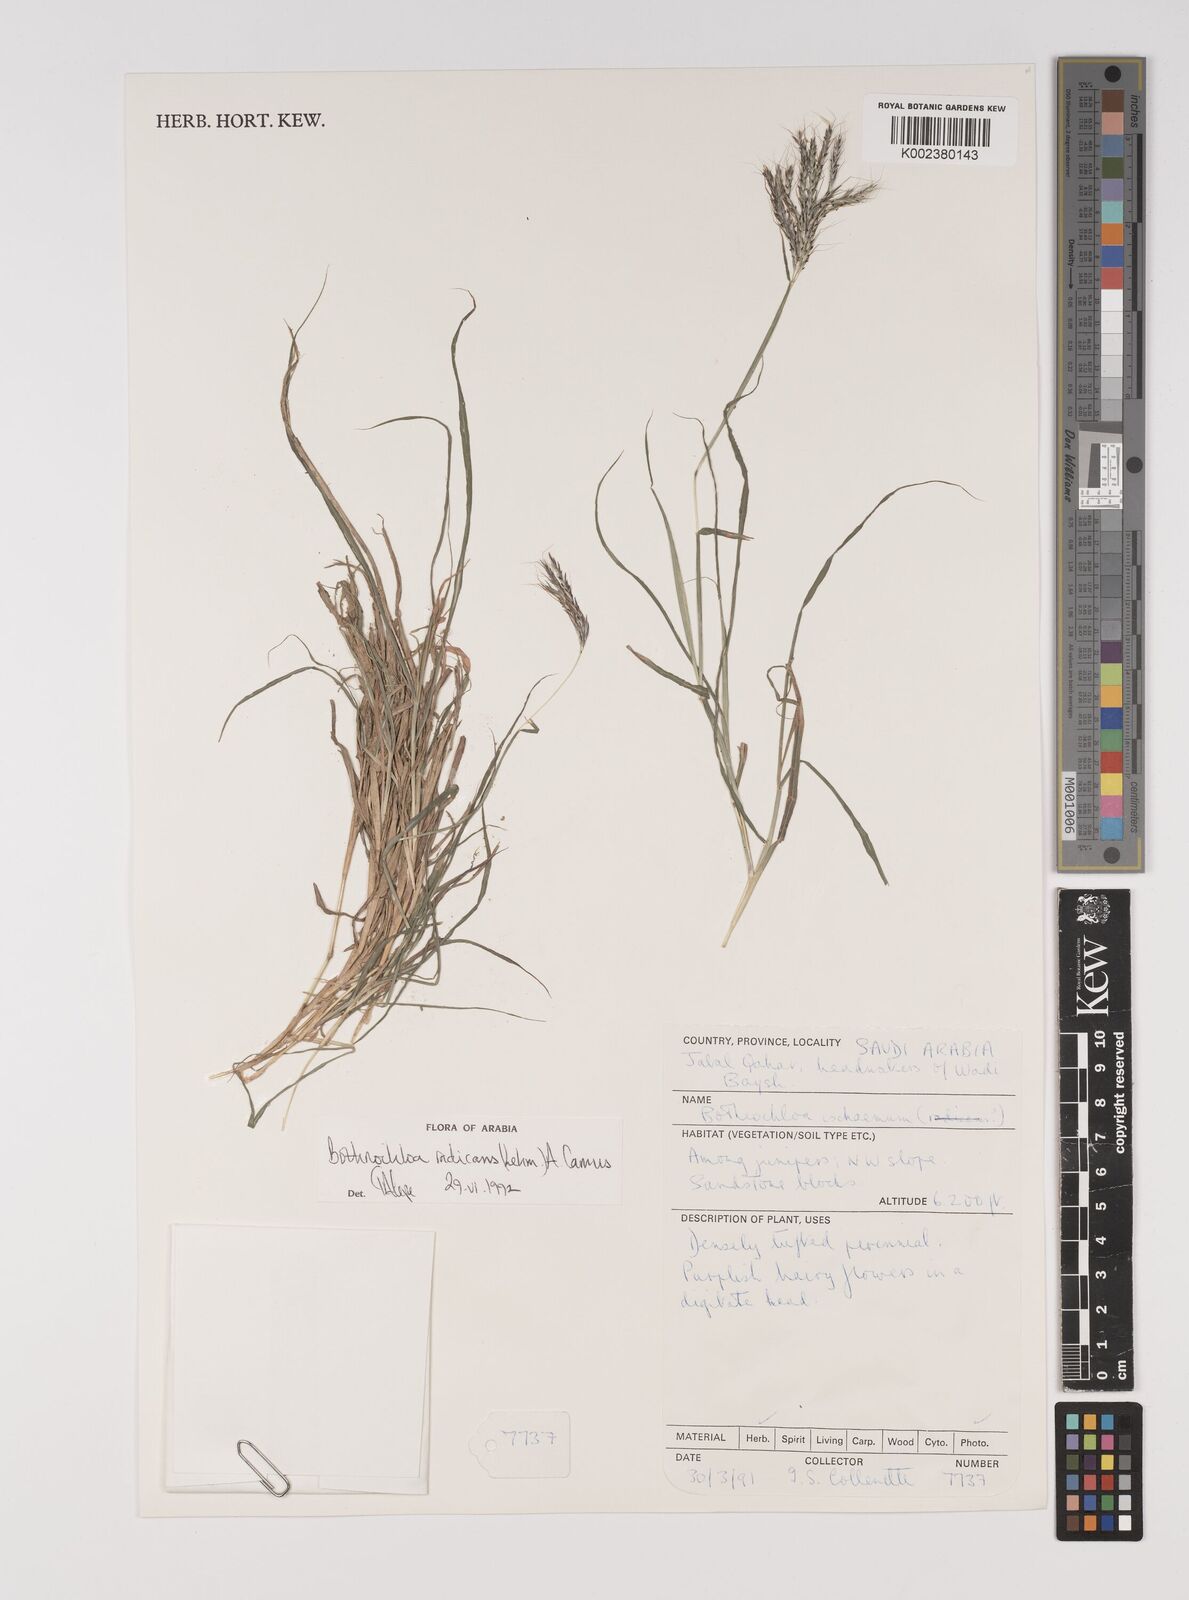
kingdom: Plantae
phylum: Tracheophyta
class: Liliopsida
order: Poales
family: Poaceae
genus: Bothriochloa
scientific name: Bothriochloa radicans
